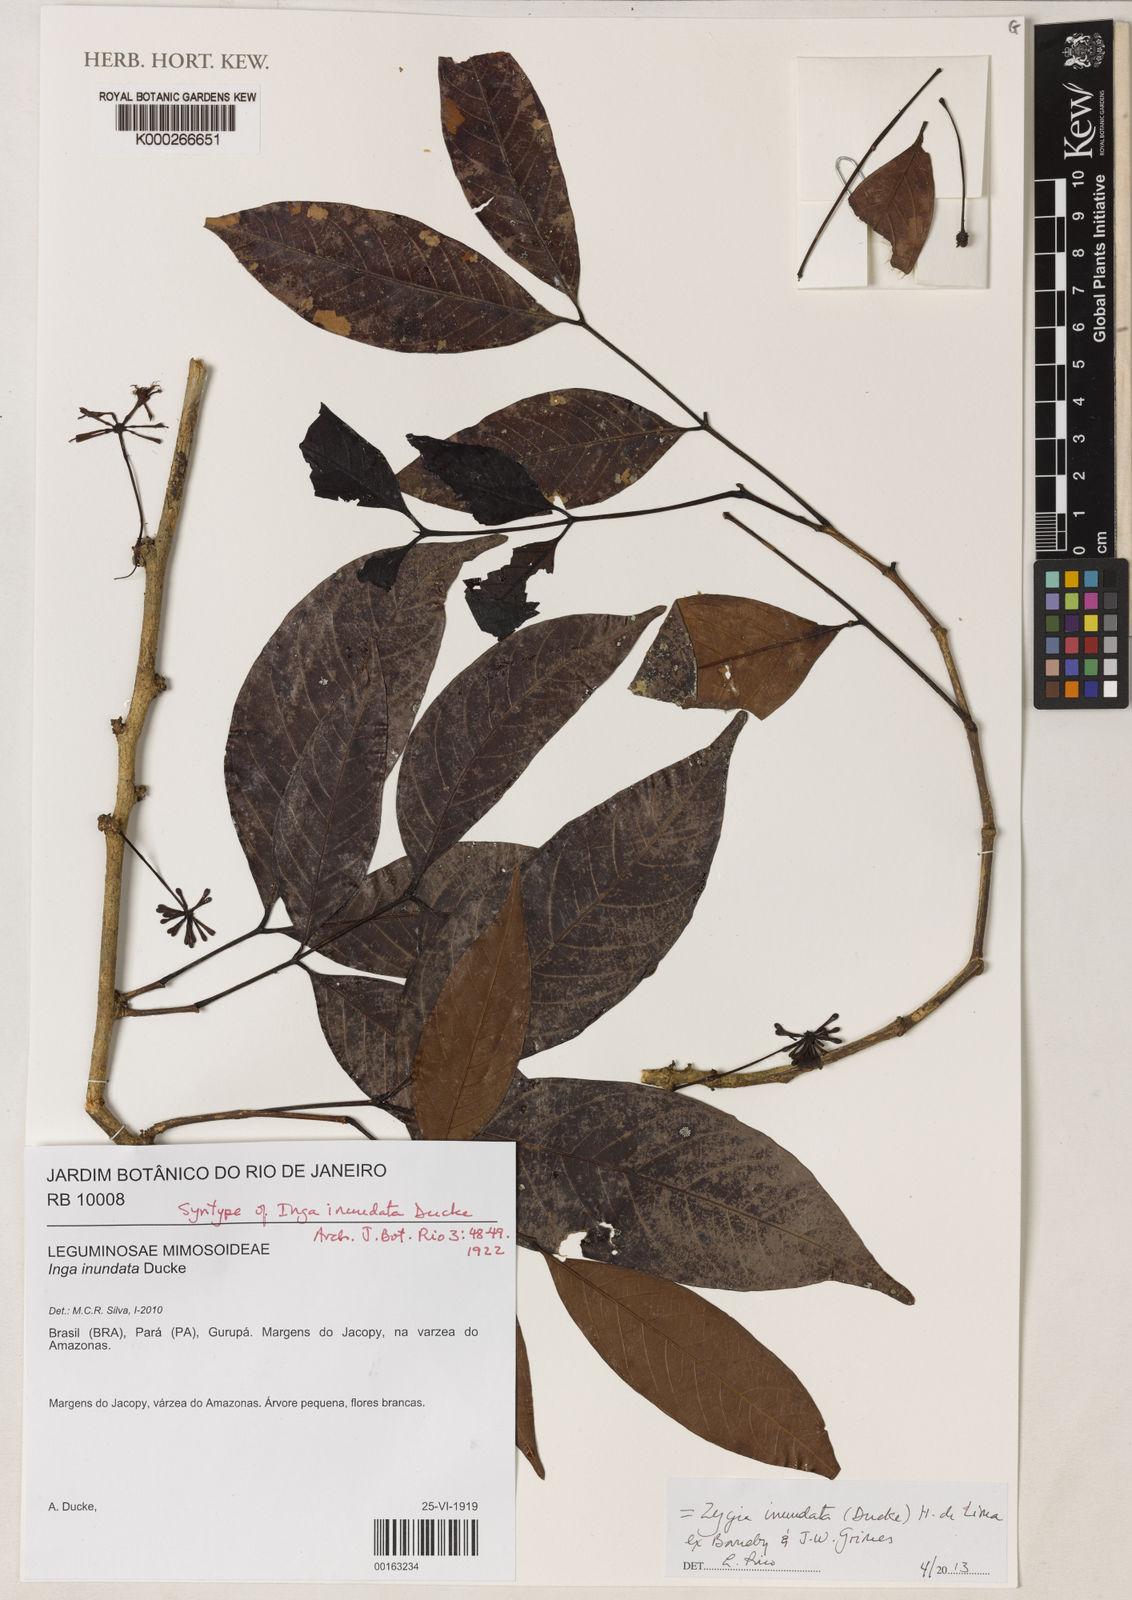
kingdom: Plantae
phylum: Tracheophyta
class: Magnoliopsida
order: Fabales
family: Fabaceae
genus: Inga
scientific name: Inga inundata
